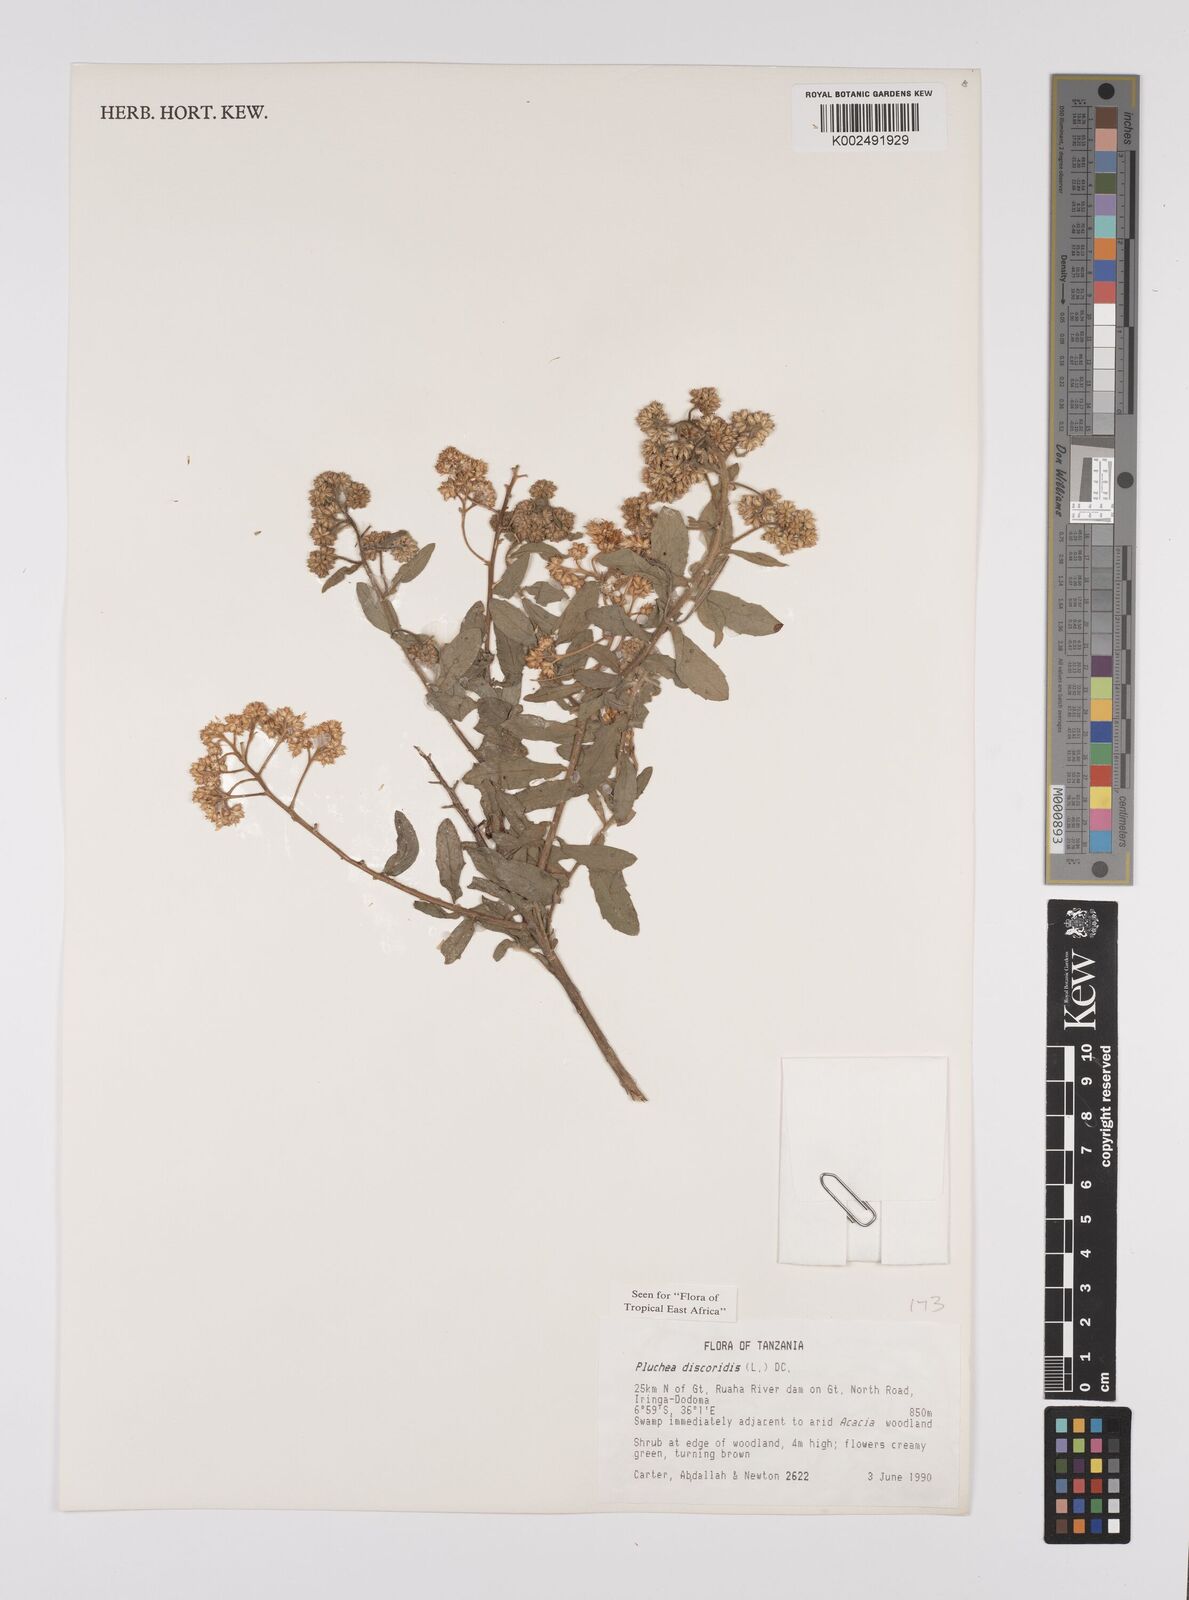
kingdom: Plantae
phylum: Tracheophyta
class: Magnoliopsida
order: Asterales
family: Asteraceae
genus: Pluchea
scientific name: Pluchea dioscoridis
